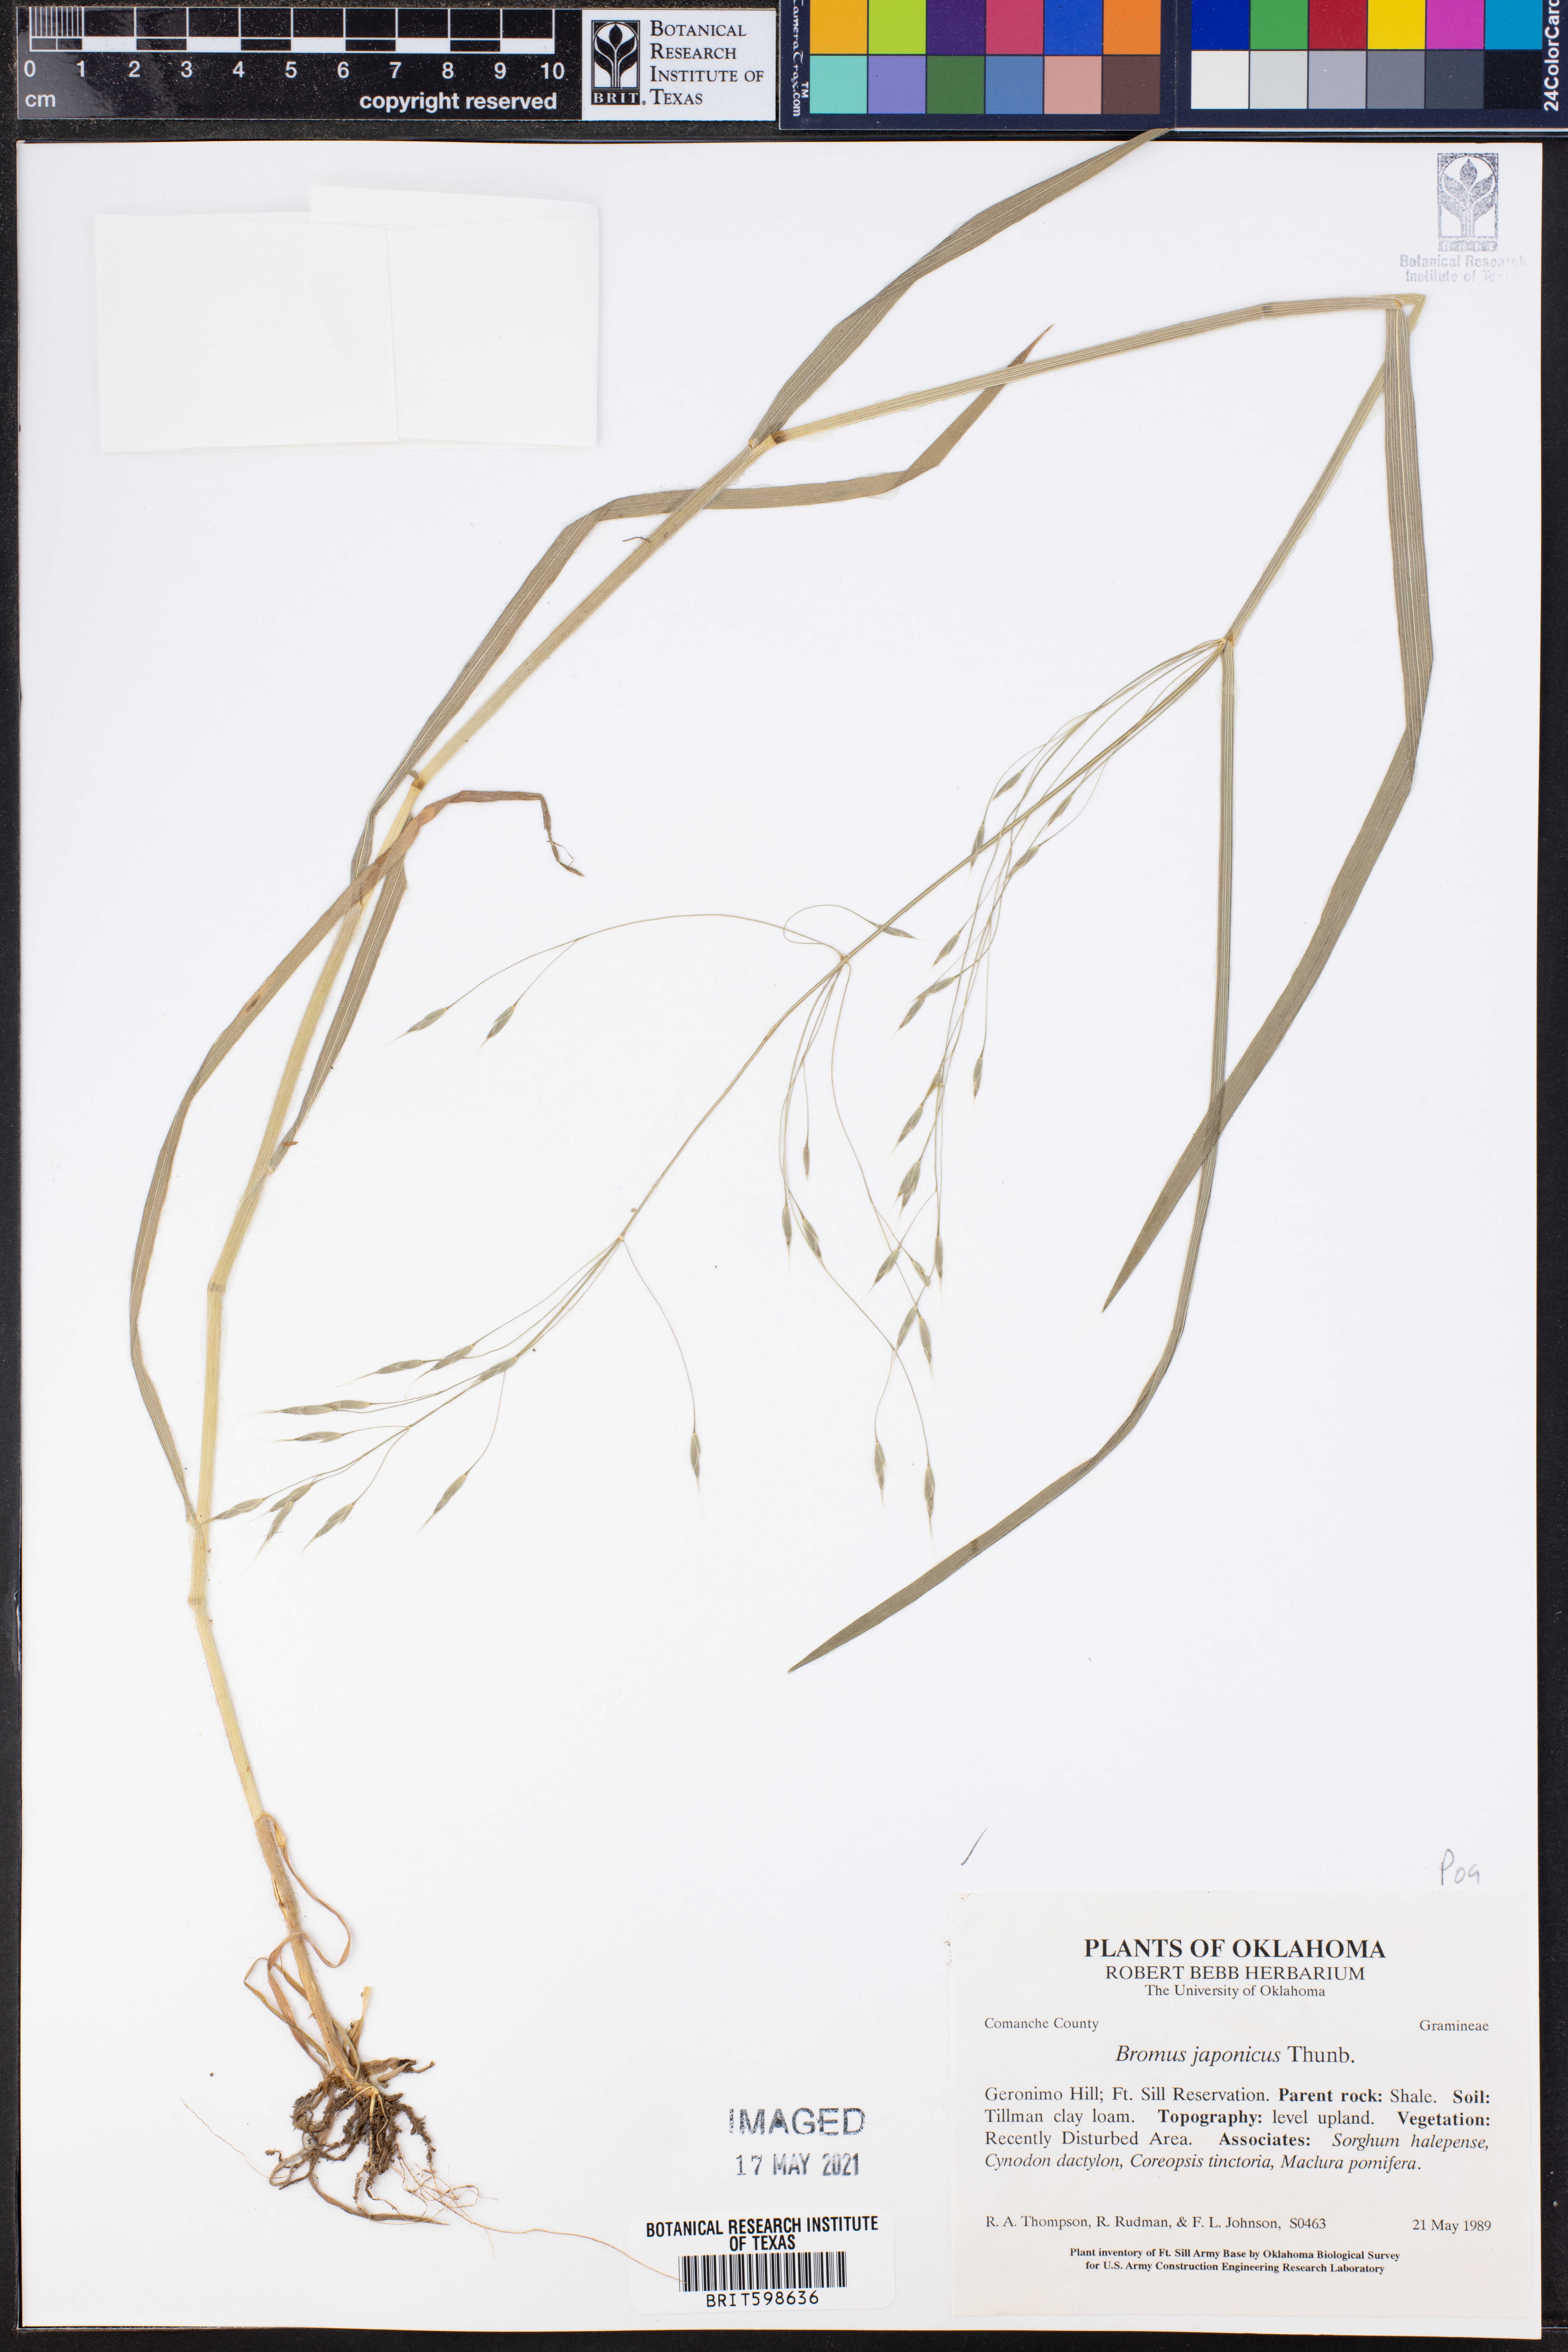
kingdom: Plantae
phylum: Tracheophyta
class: Liliopsida
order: Poales
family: Poaceae
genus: Bromus
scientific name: Bromus japonicus
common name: Japanese brome
